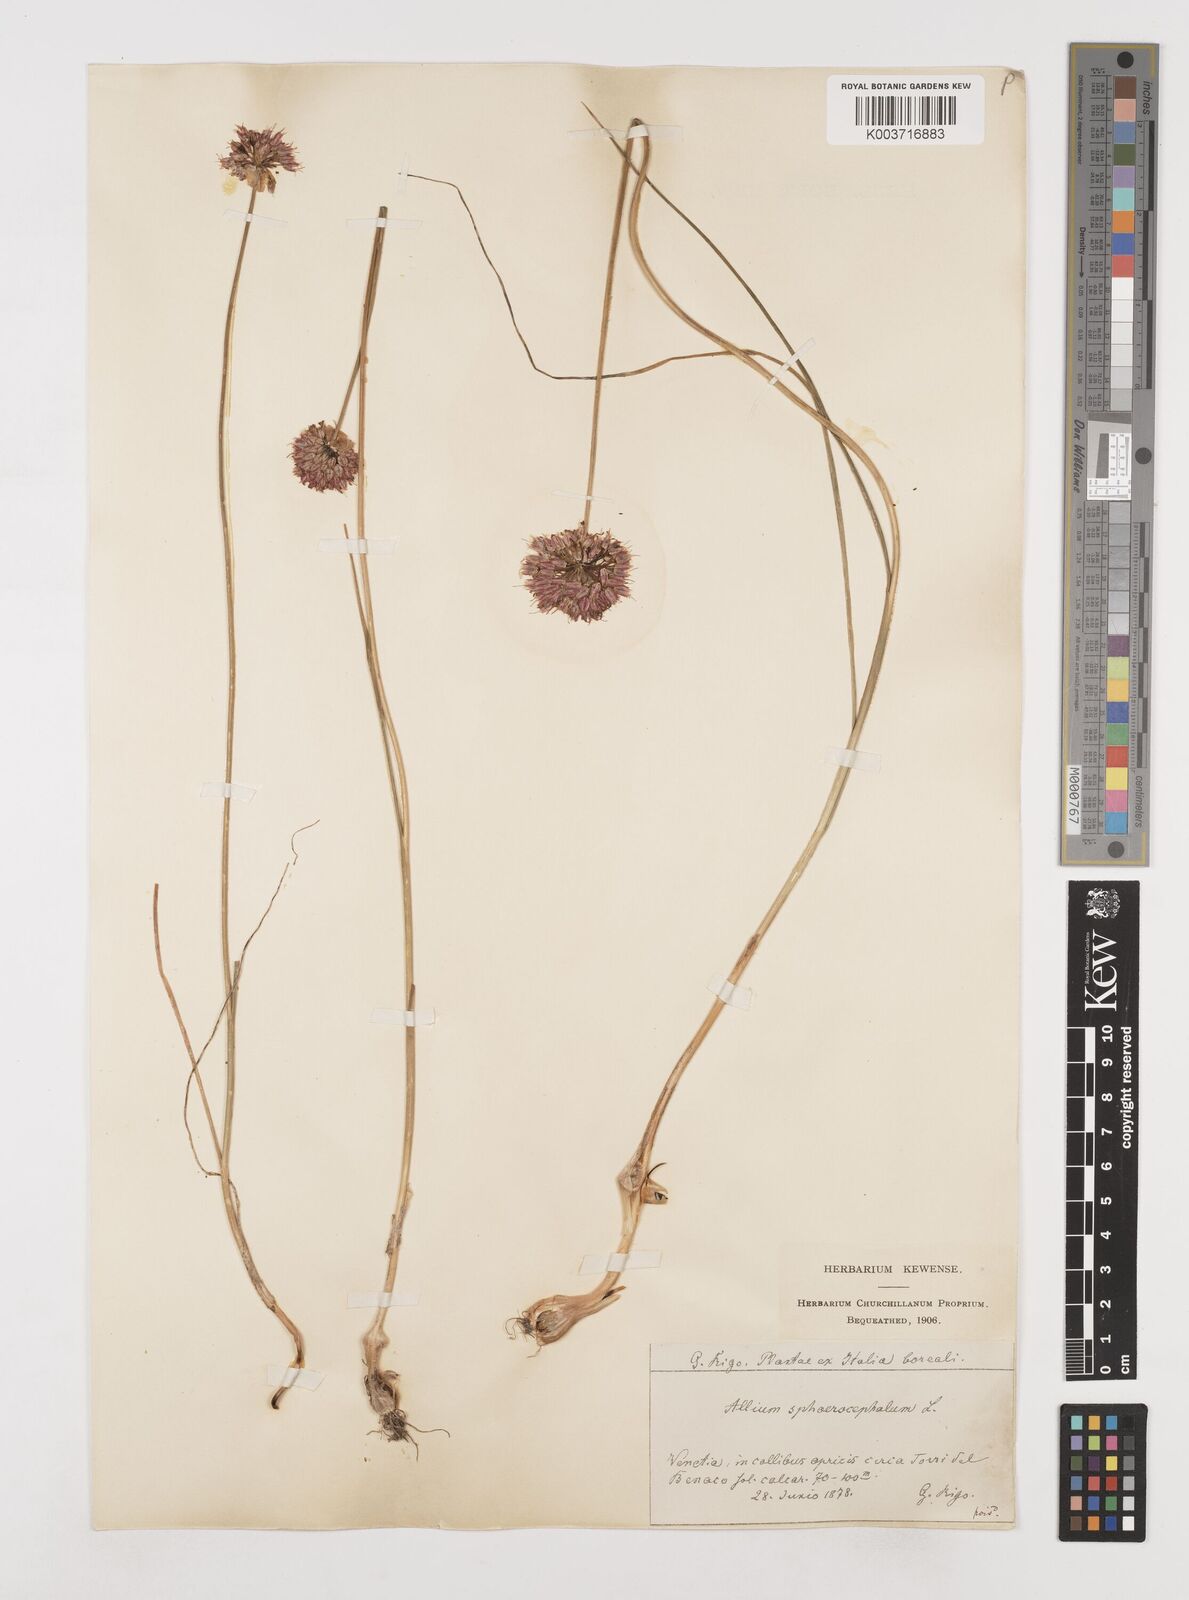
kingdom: Plantae
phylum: Tracheophyta
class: Liliopsida
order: Asparagales
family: Amaryllidaceae
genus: Allium
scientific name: Allium sphaerocephalon
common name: Round-headed leek
